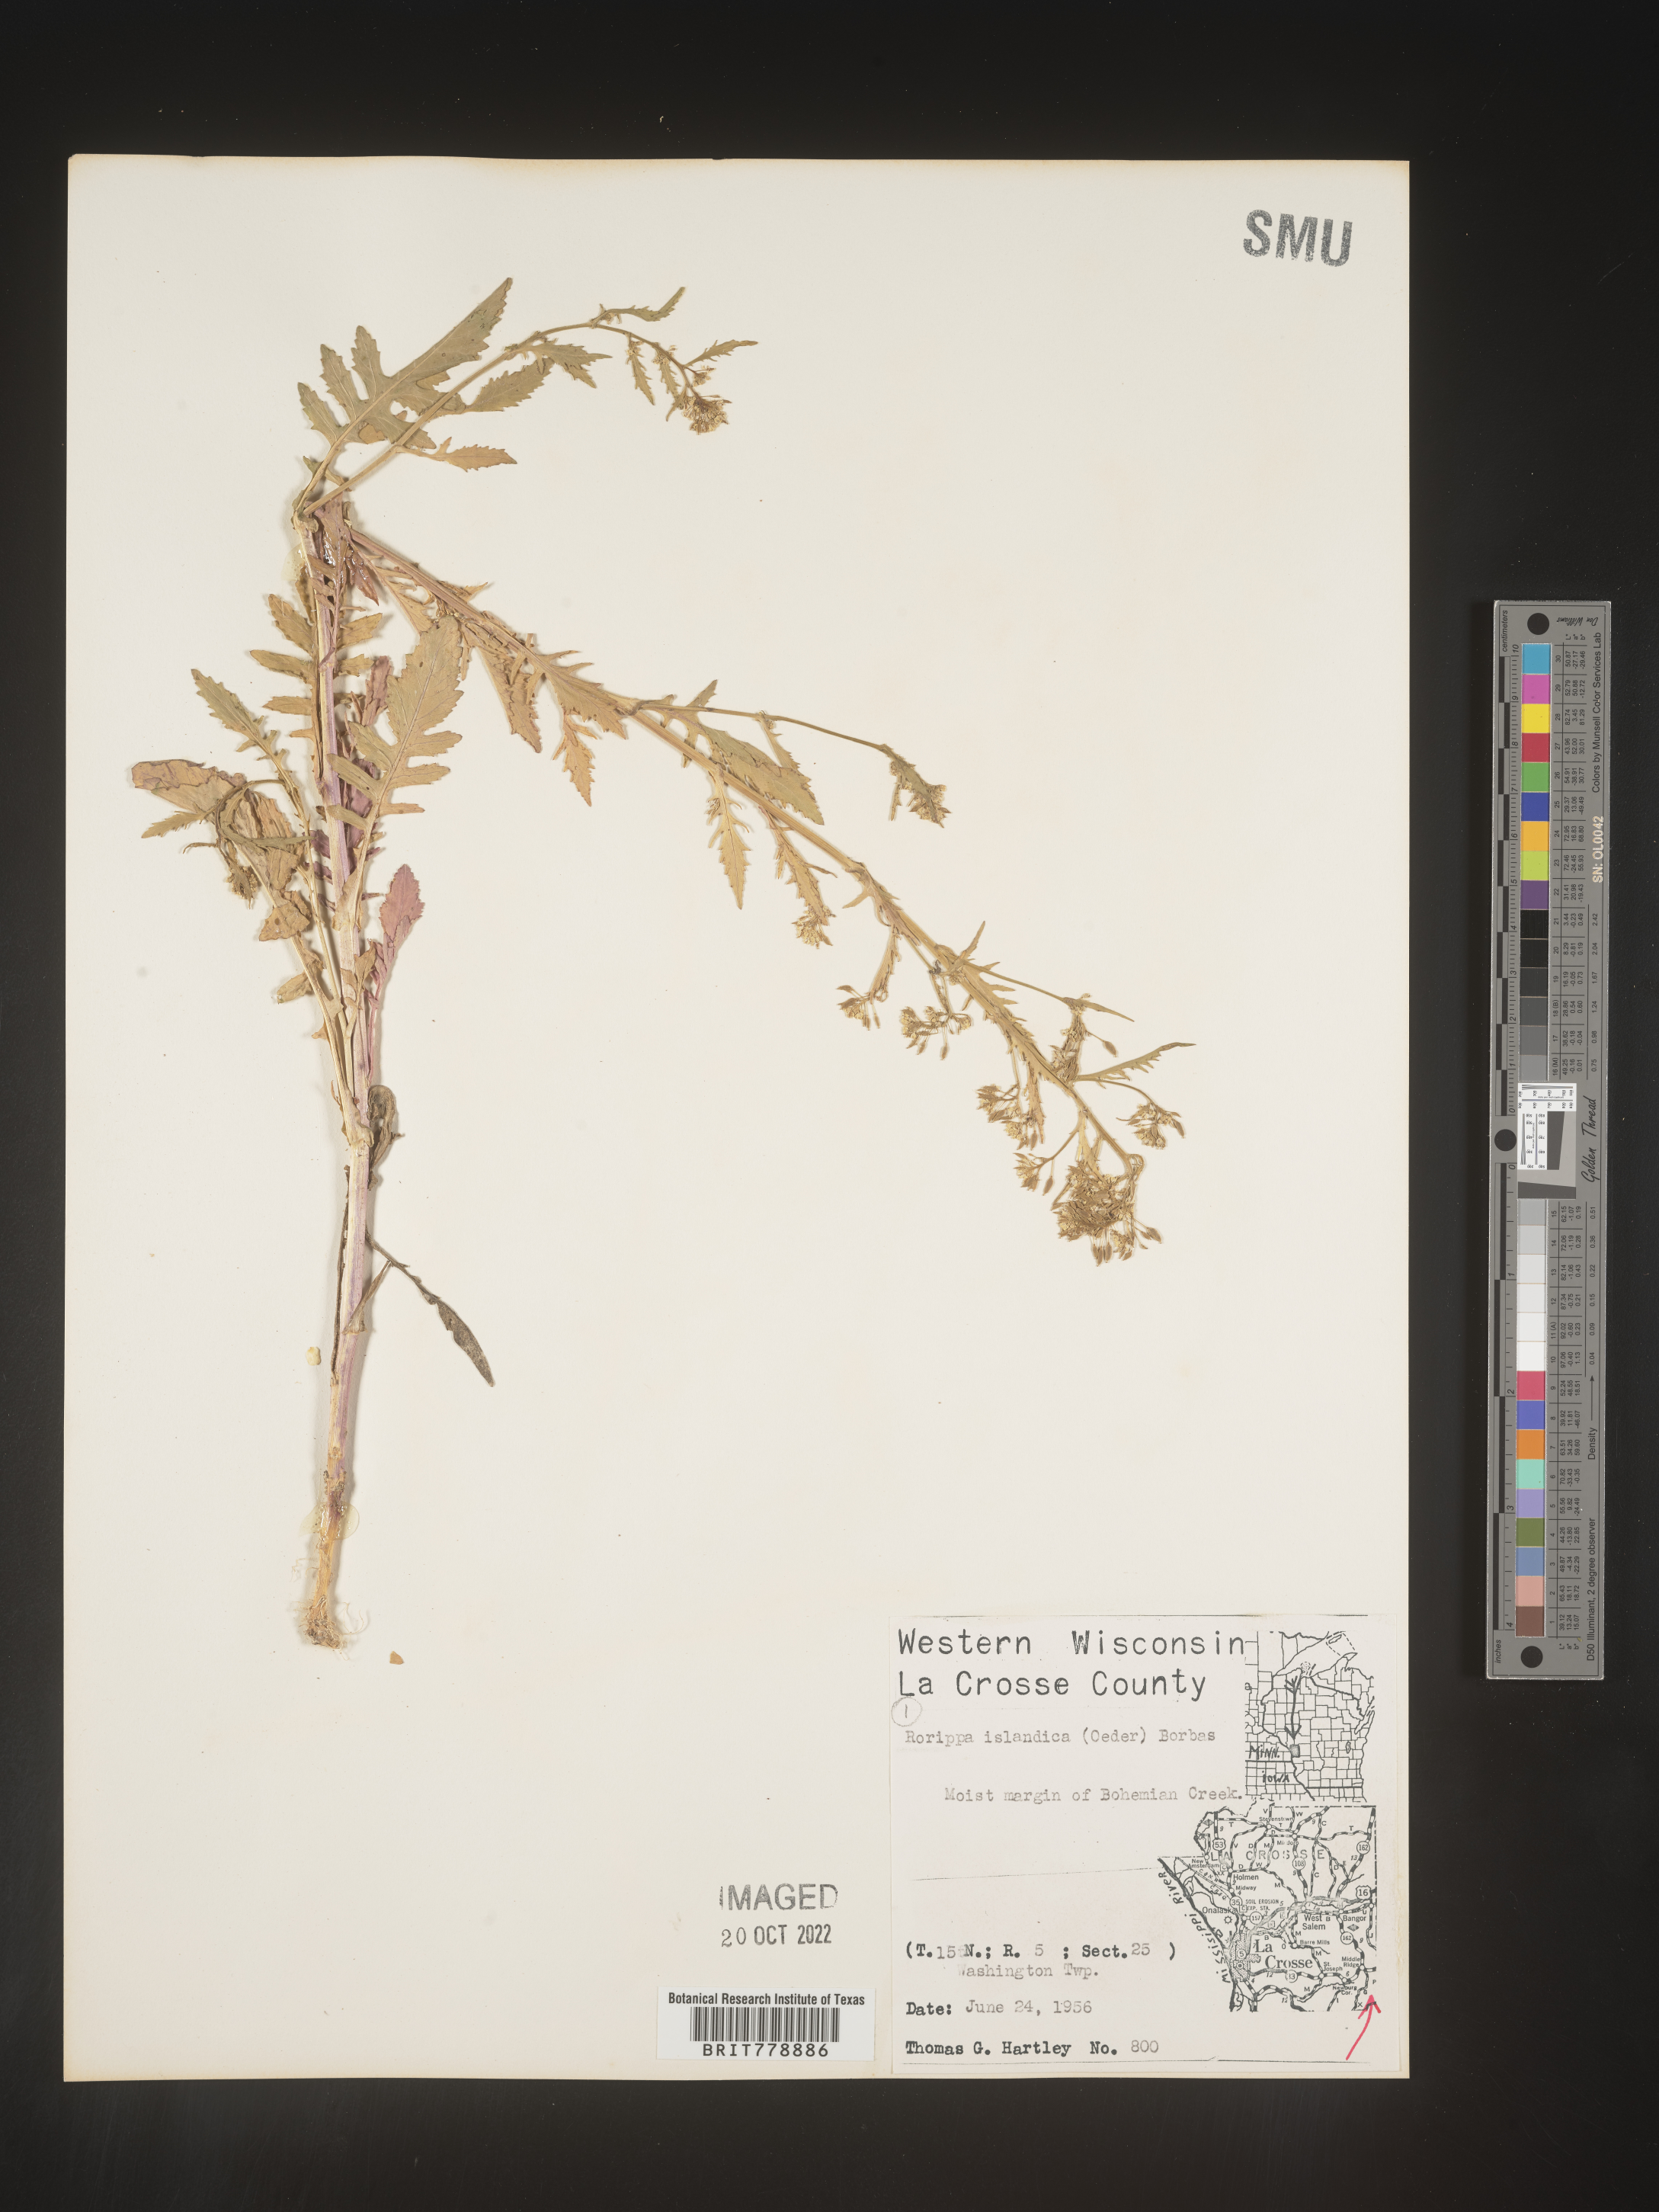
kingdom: Plantae
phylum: Tracheophyta
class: Magnoliopsida
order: Brassicales
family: Brassicaceae
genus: Rorippa
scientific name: Rorippa palustris
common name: Marsh yellow-cress
